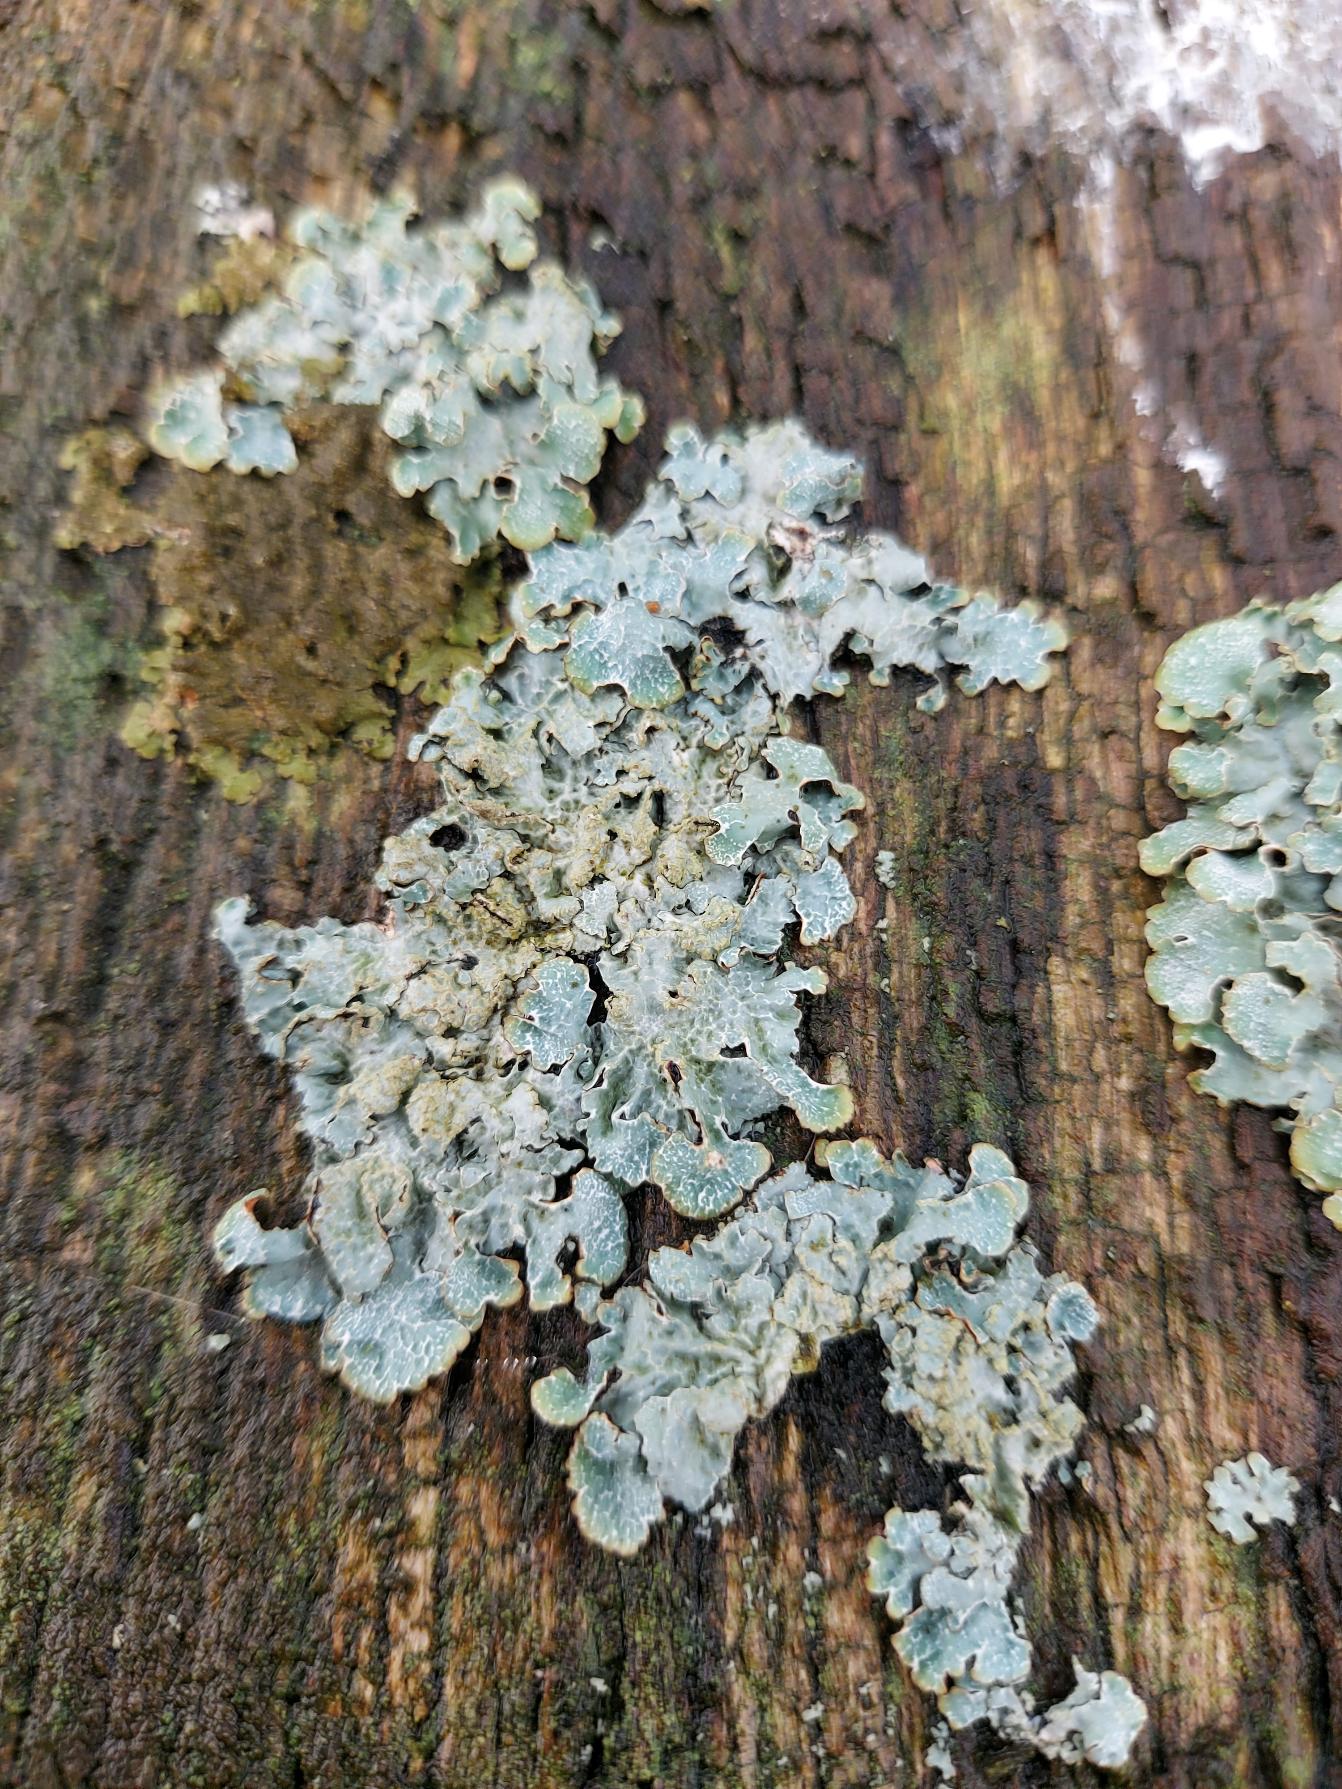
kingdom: Fungi
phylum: Ascomycota
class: Lecanoromycetes
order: Lecanorales
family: Parmeliaceae
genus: Parmelia
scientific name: Parmelia sulcata
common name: Rynket skållav
